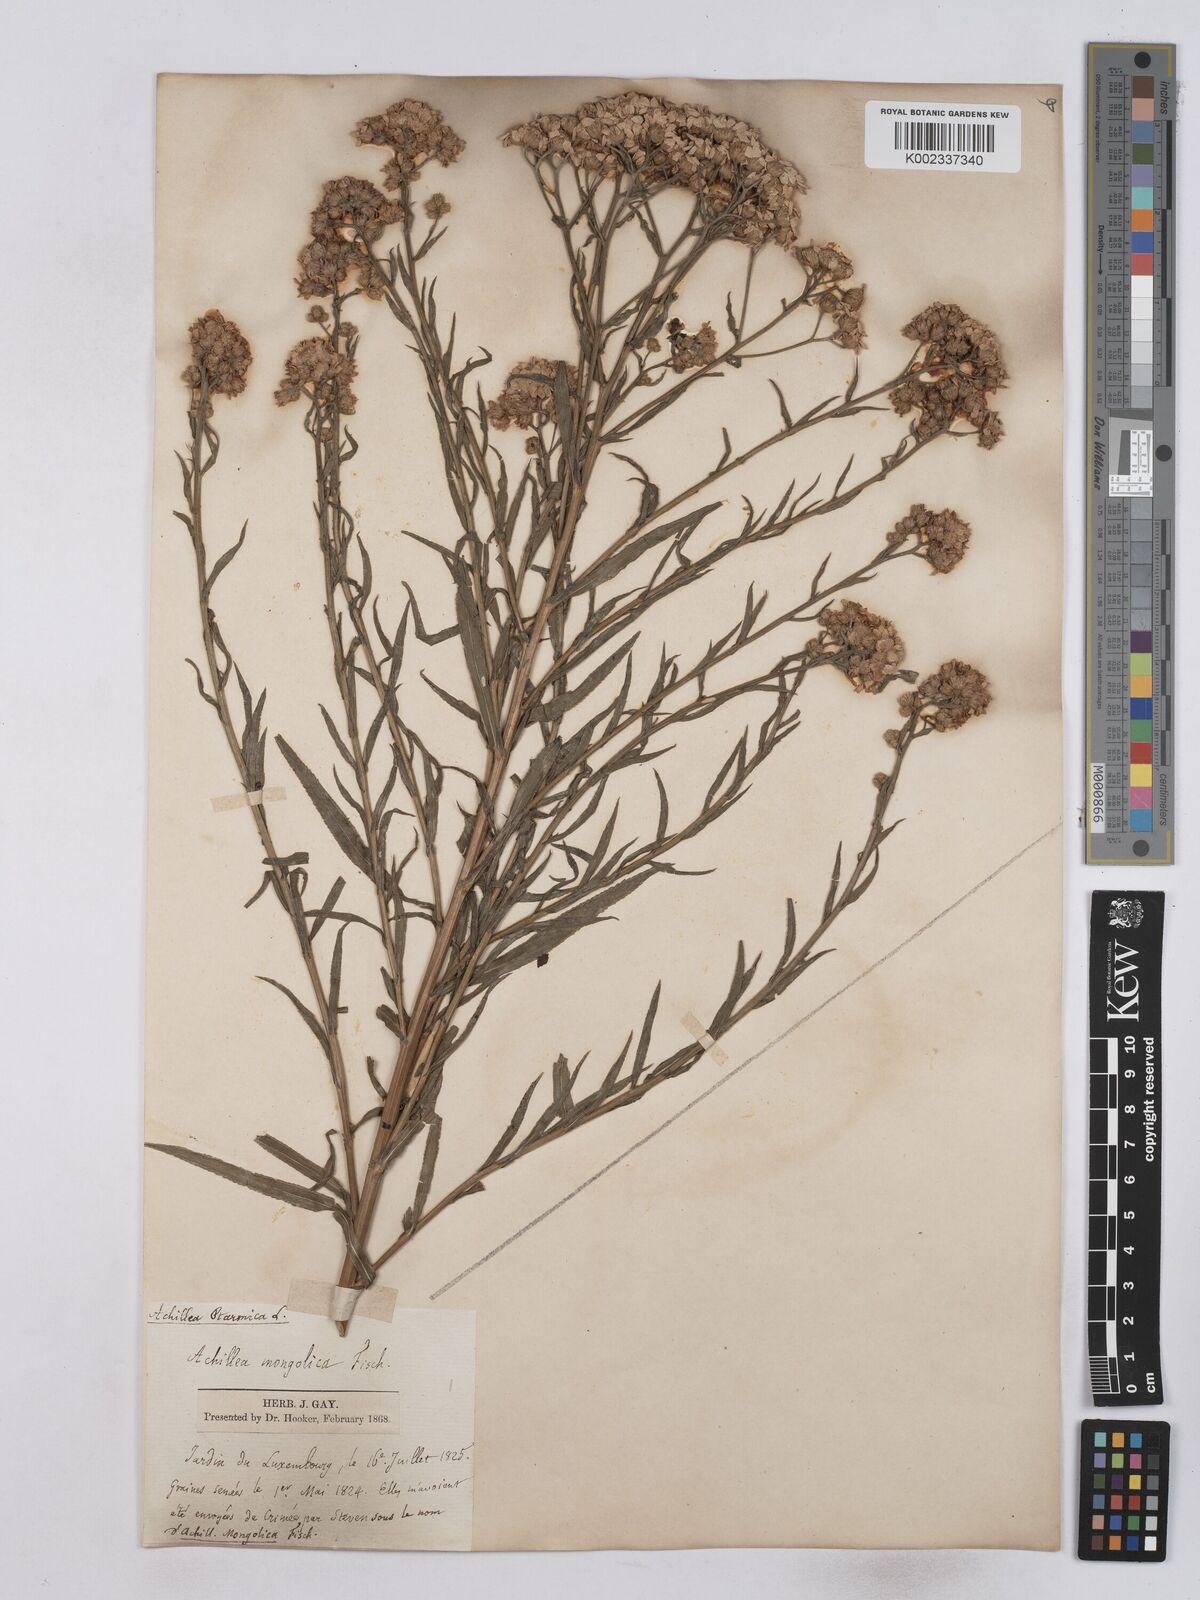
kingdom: Plantae
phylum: Tracheophyta
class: Magnoliopsida
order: Asterales
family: Asteraceae
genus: Achillea
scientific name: Achillea serrata
